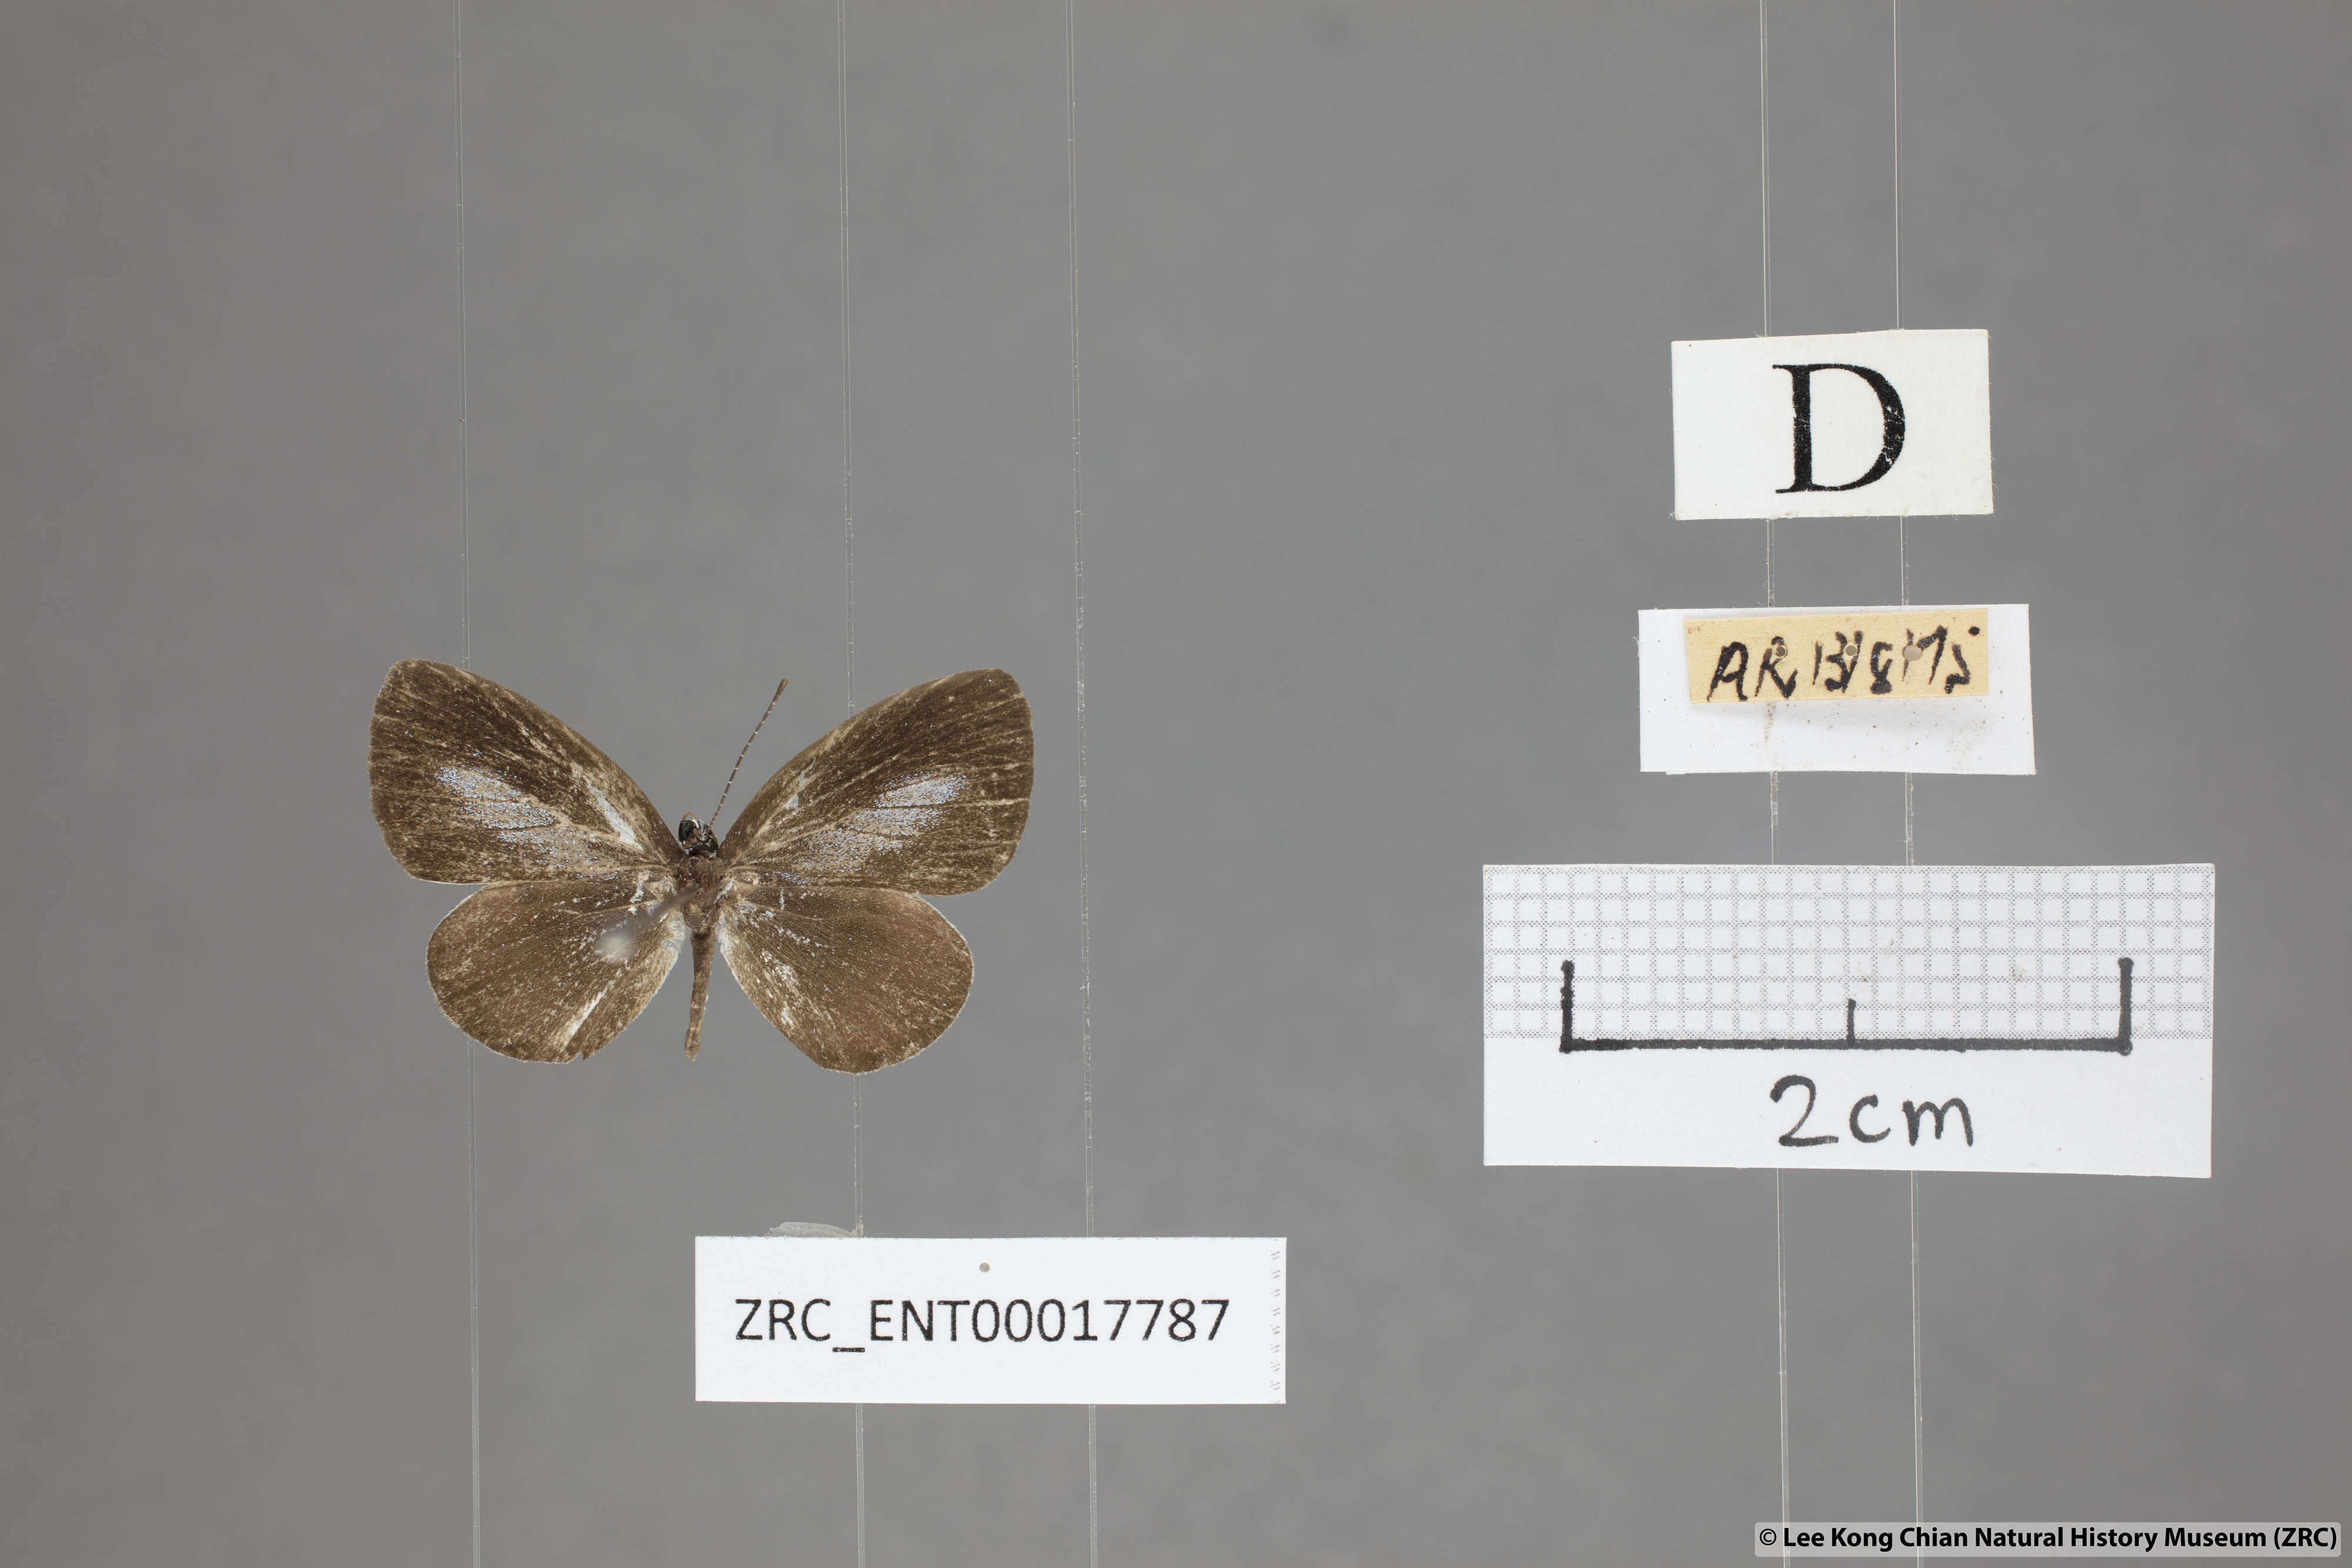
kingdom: Animalia
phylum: Arthropoda
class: Insecta
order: Lepidoptera
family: Lycaenidae
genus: Callenya
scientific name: Callenya lenya
